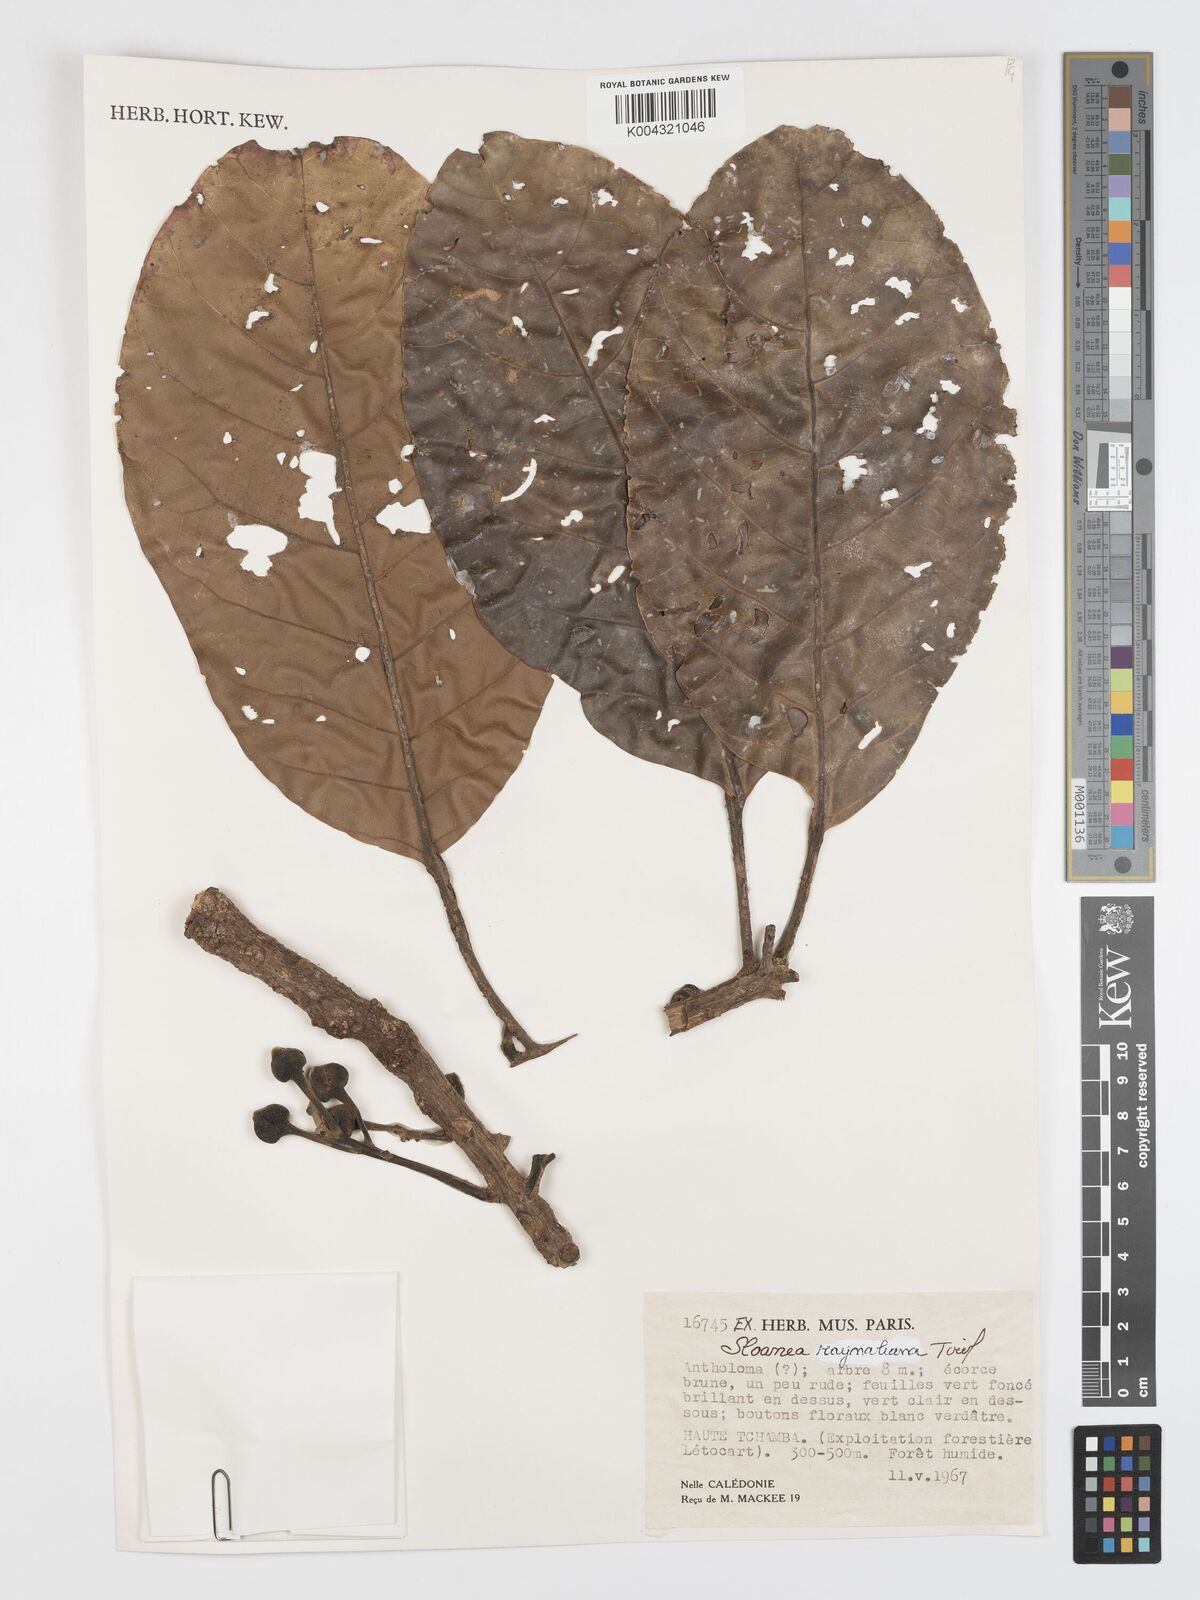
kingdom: Plantae
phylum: Tracheophyta
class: Magnoliopsida
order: Oxalidales
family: Elaeocarpaceae
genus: Sloanea
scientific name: Sloanea raynaliana
